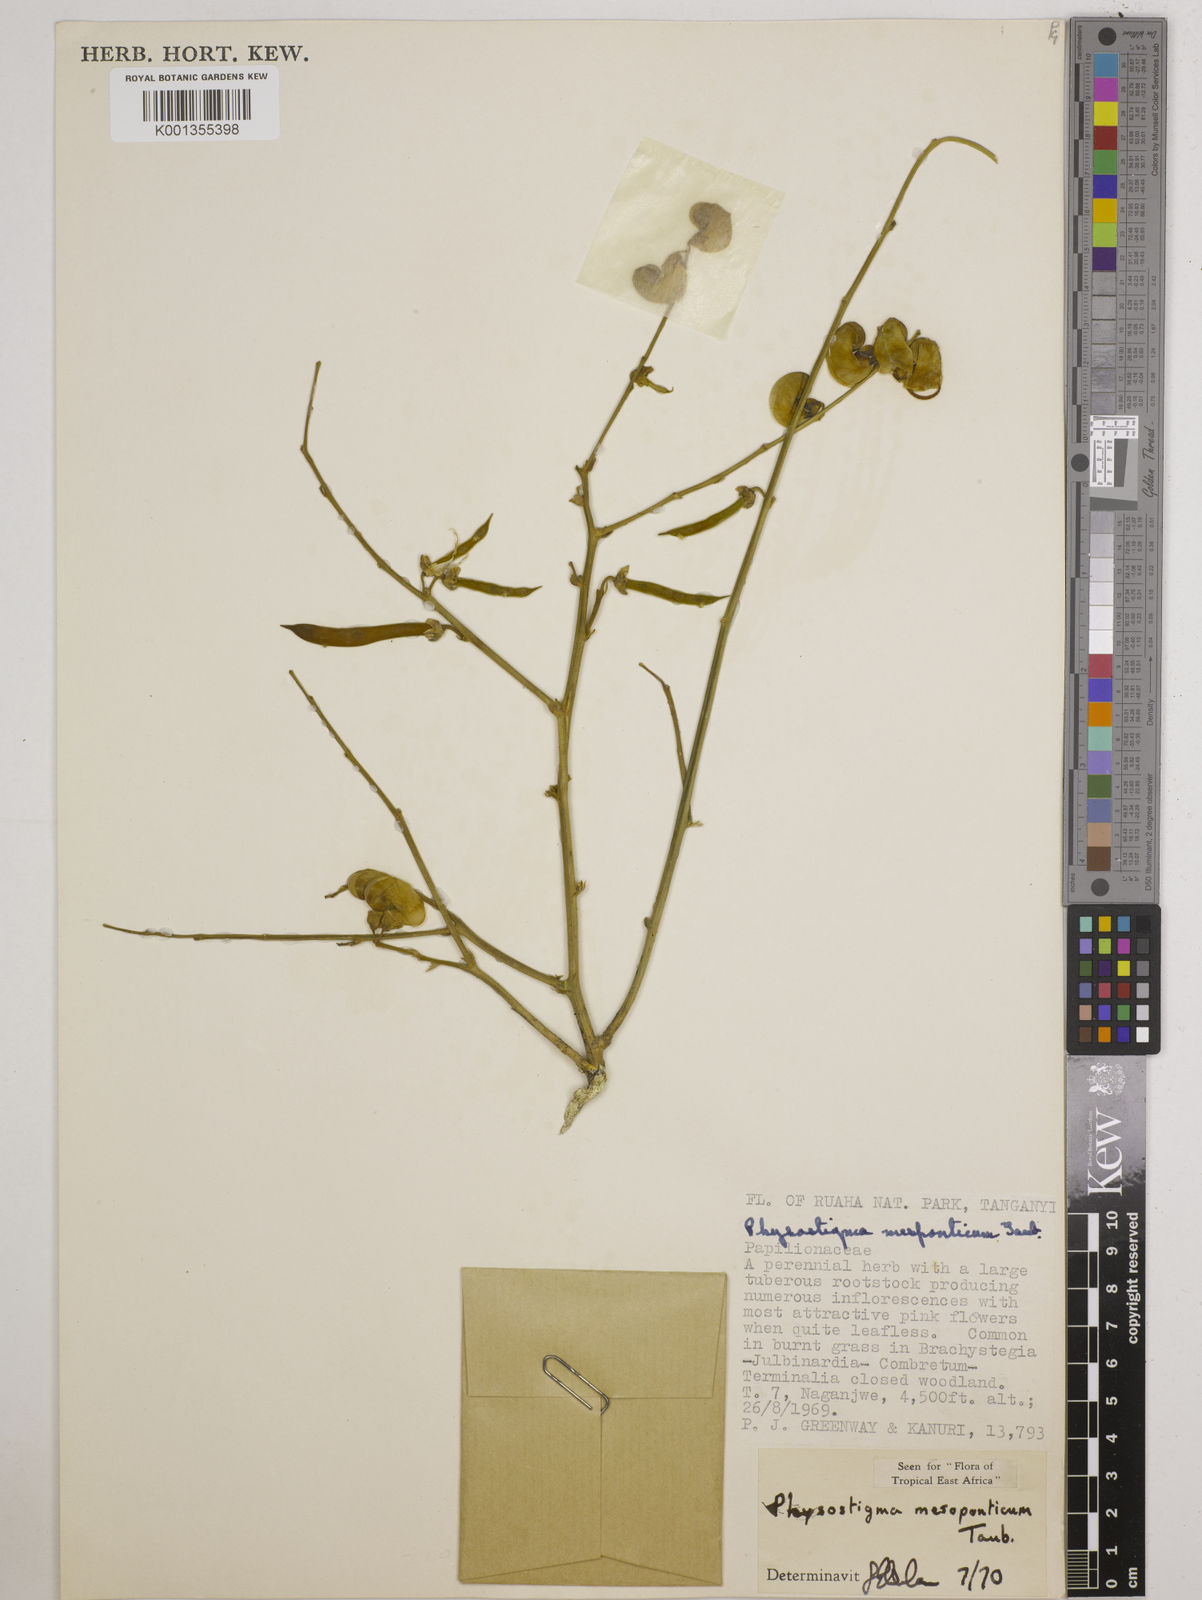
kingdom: Plantae
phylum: Tracheophyta
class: Magnoliopsida
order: Fabales
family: Fabaceae
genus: Physostigma
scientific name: Physostigma mesoponticum
